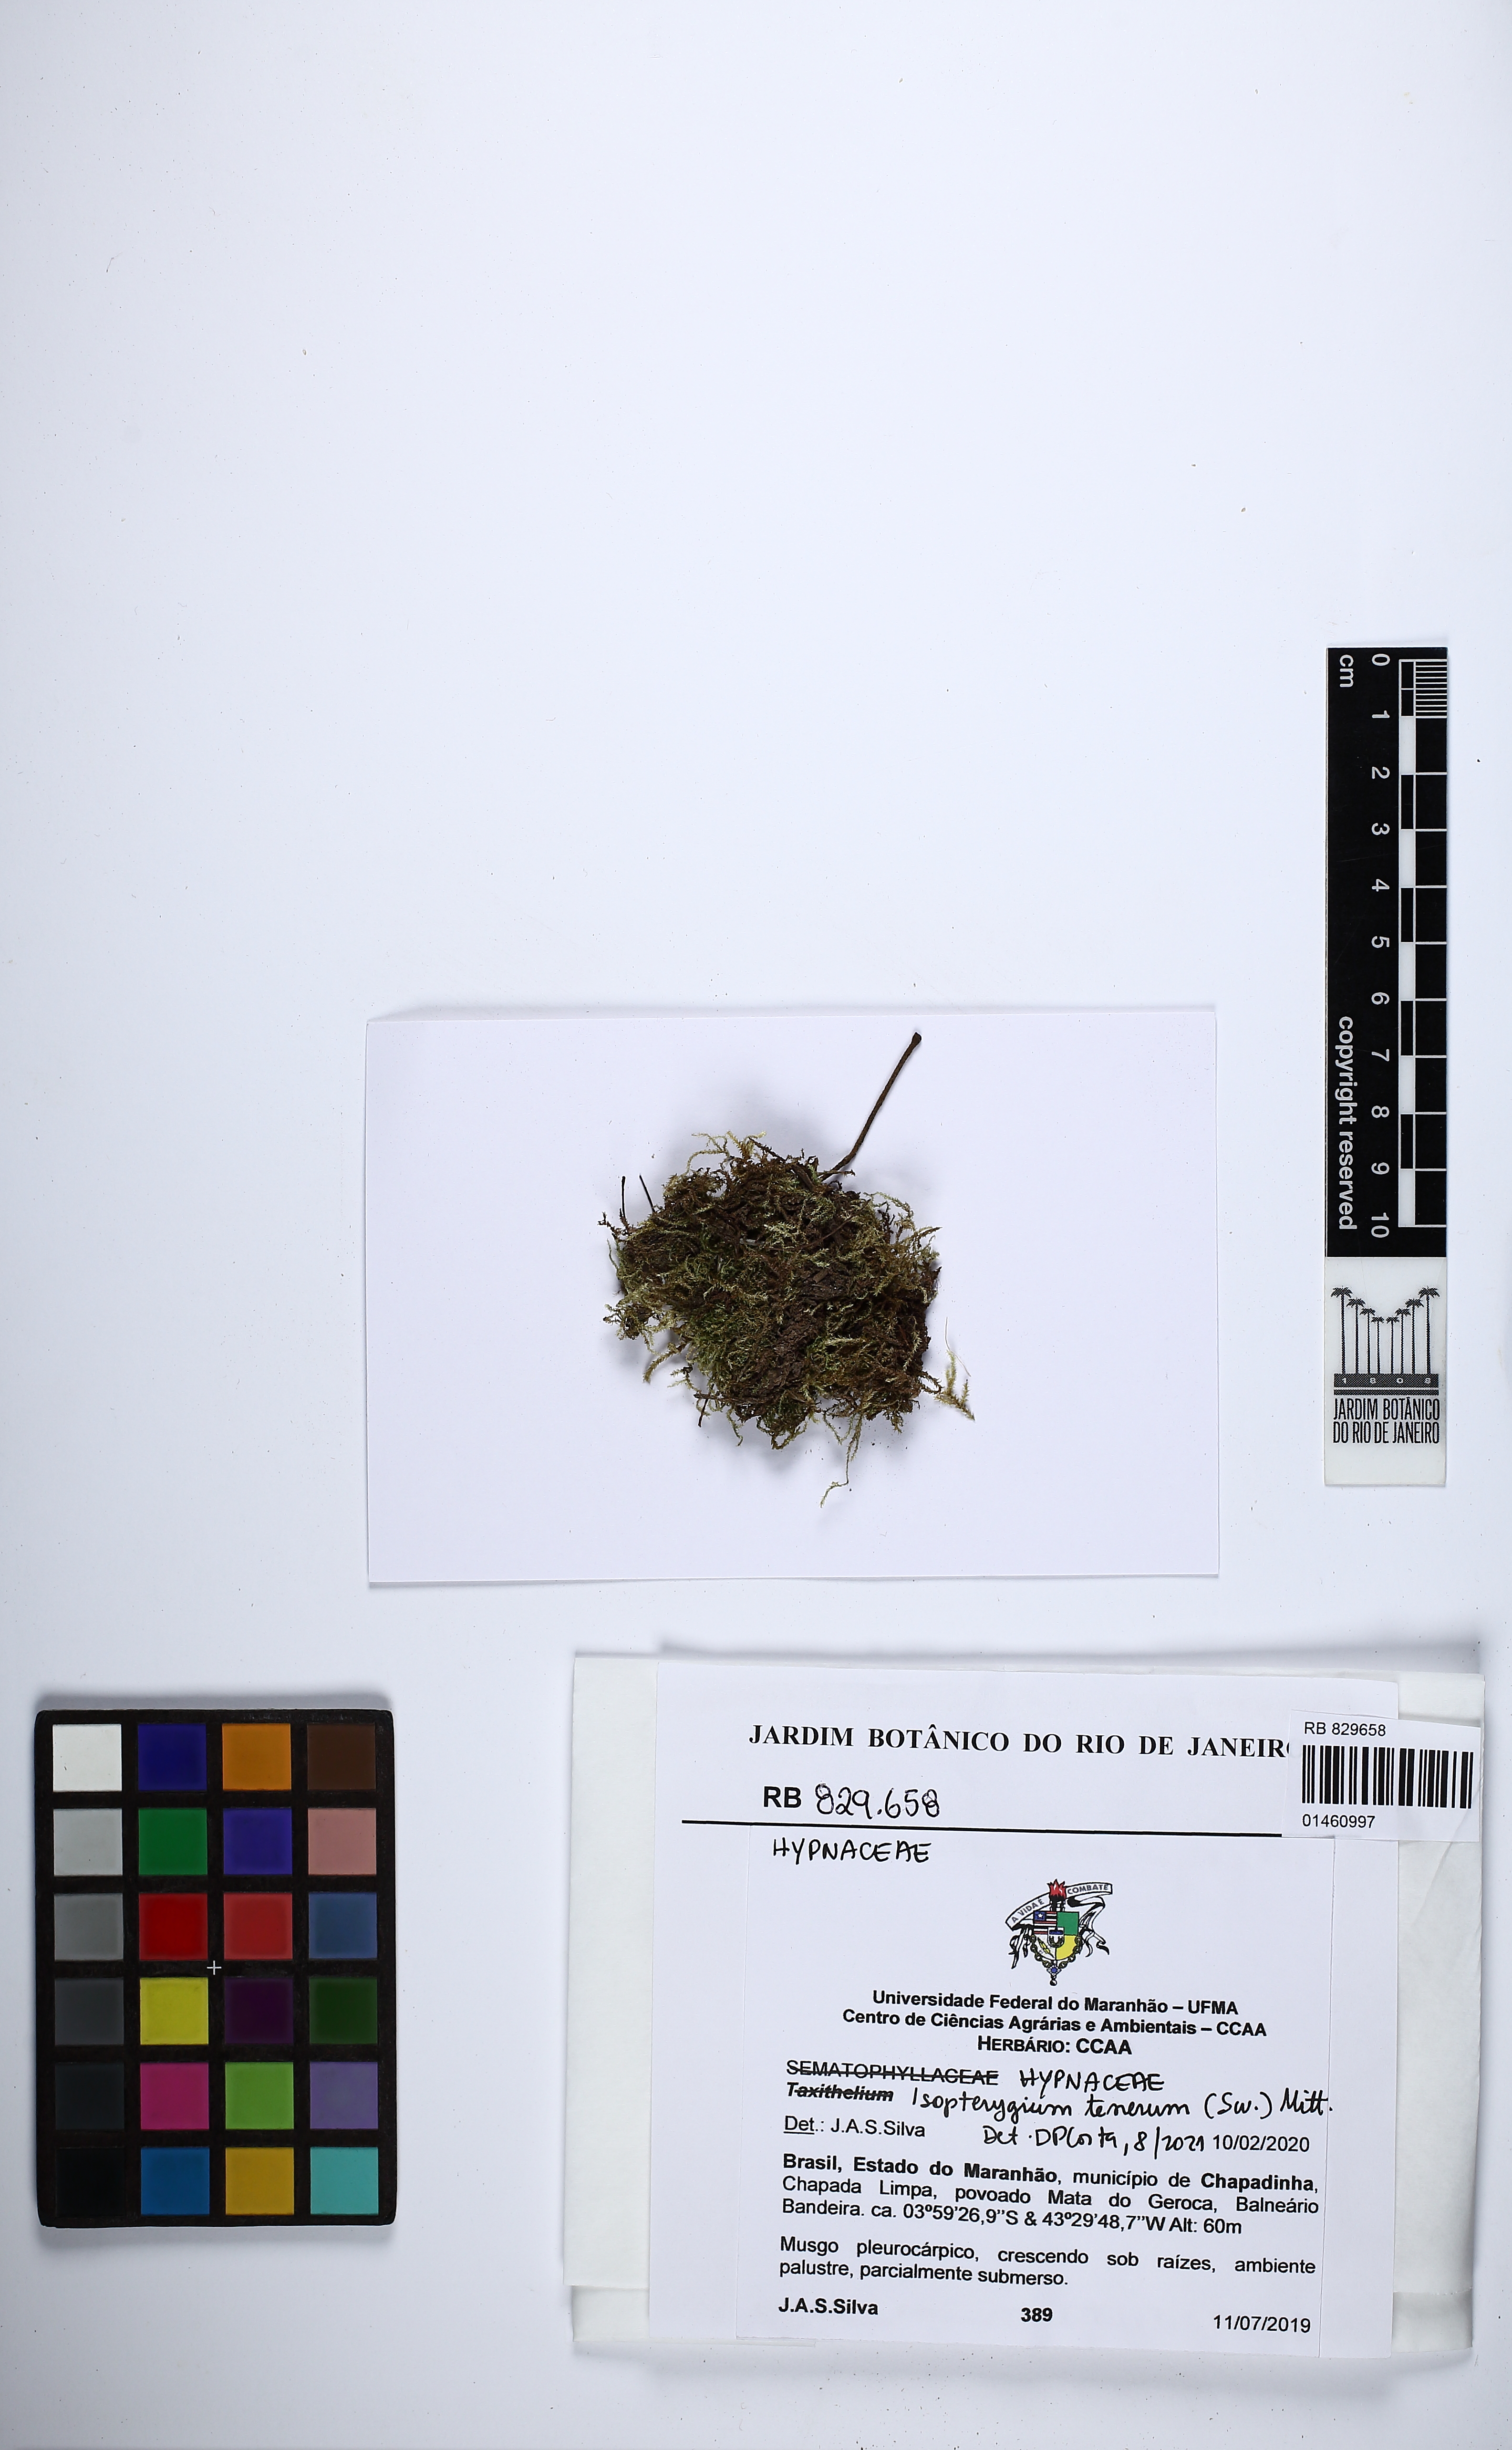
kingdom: Plantae
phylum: Bryophyta
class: Bryopsida
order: Hypnales
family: Pylaisiadelphaceae
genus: Isopterygium
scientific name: Isopterygium tenerum
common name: Isopterygium moss
